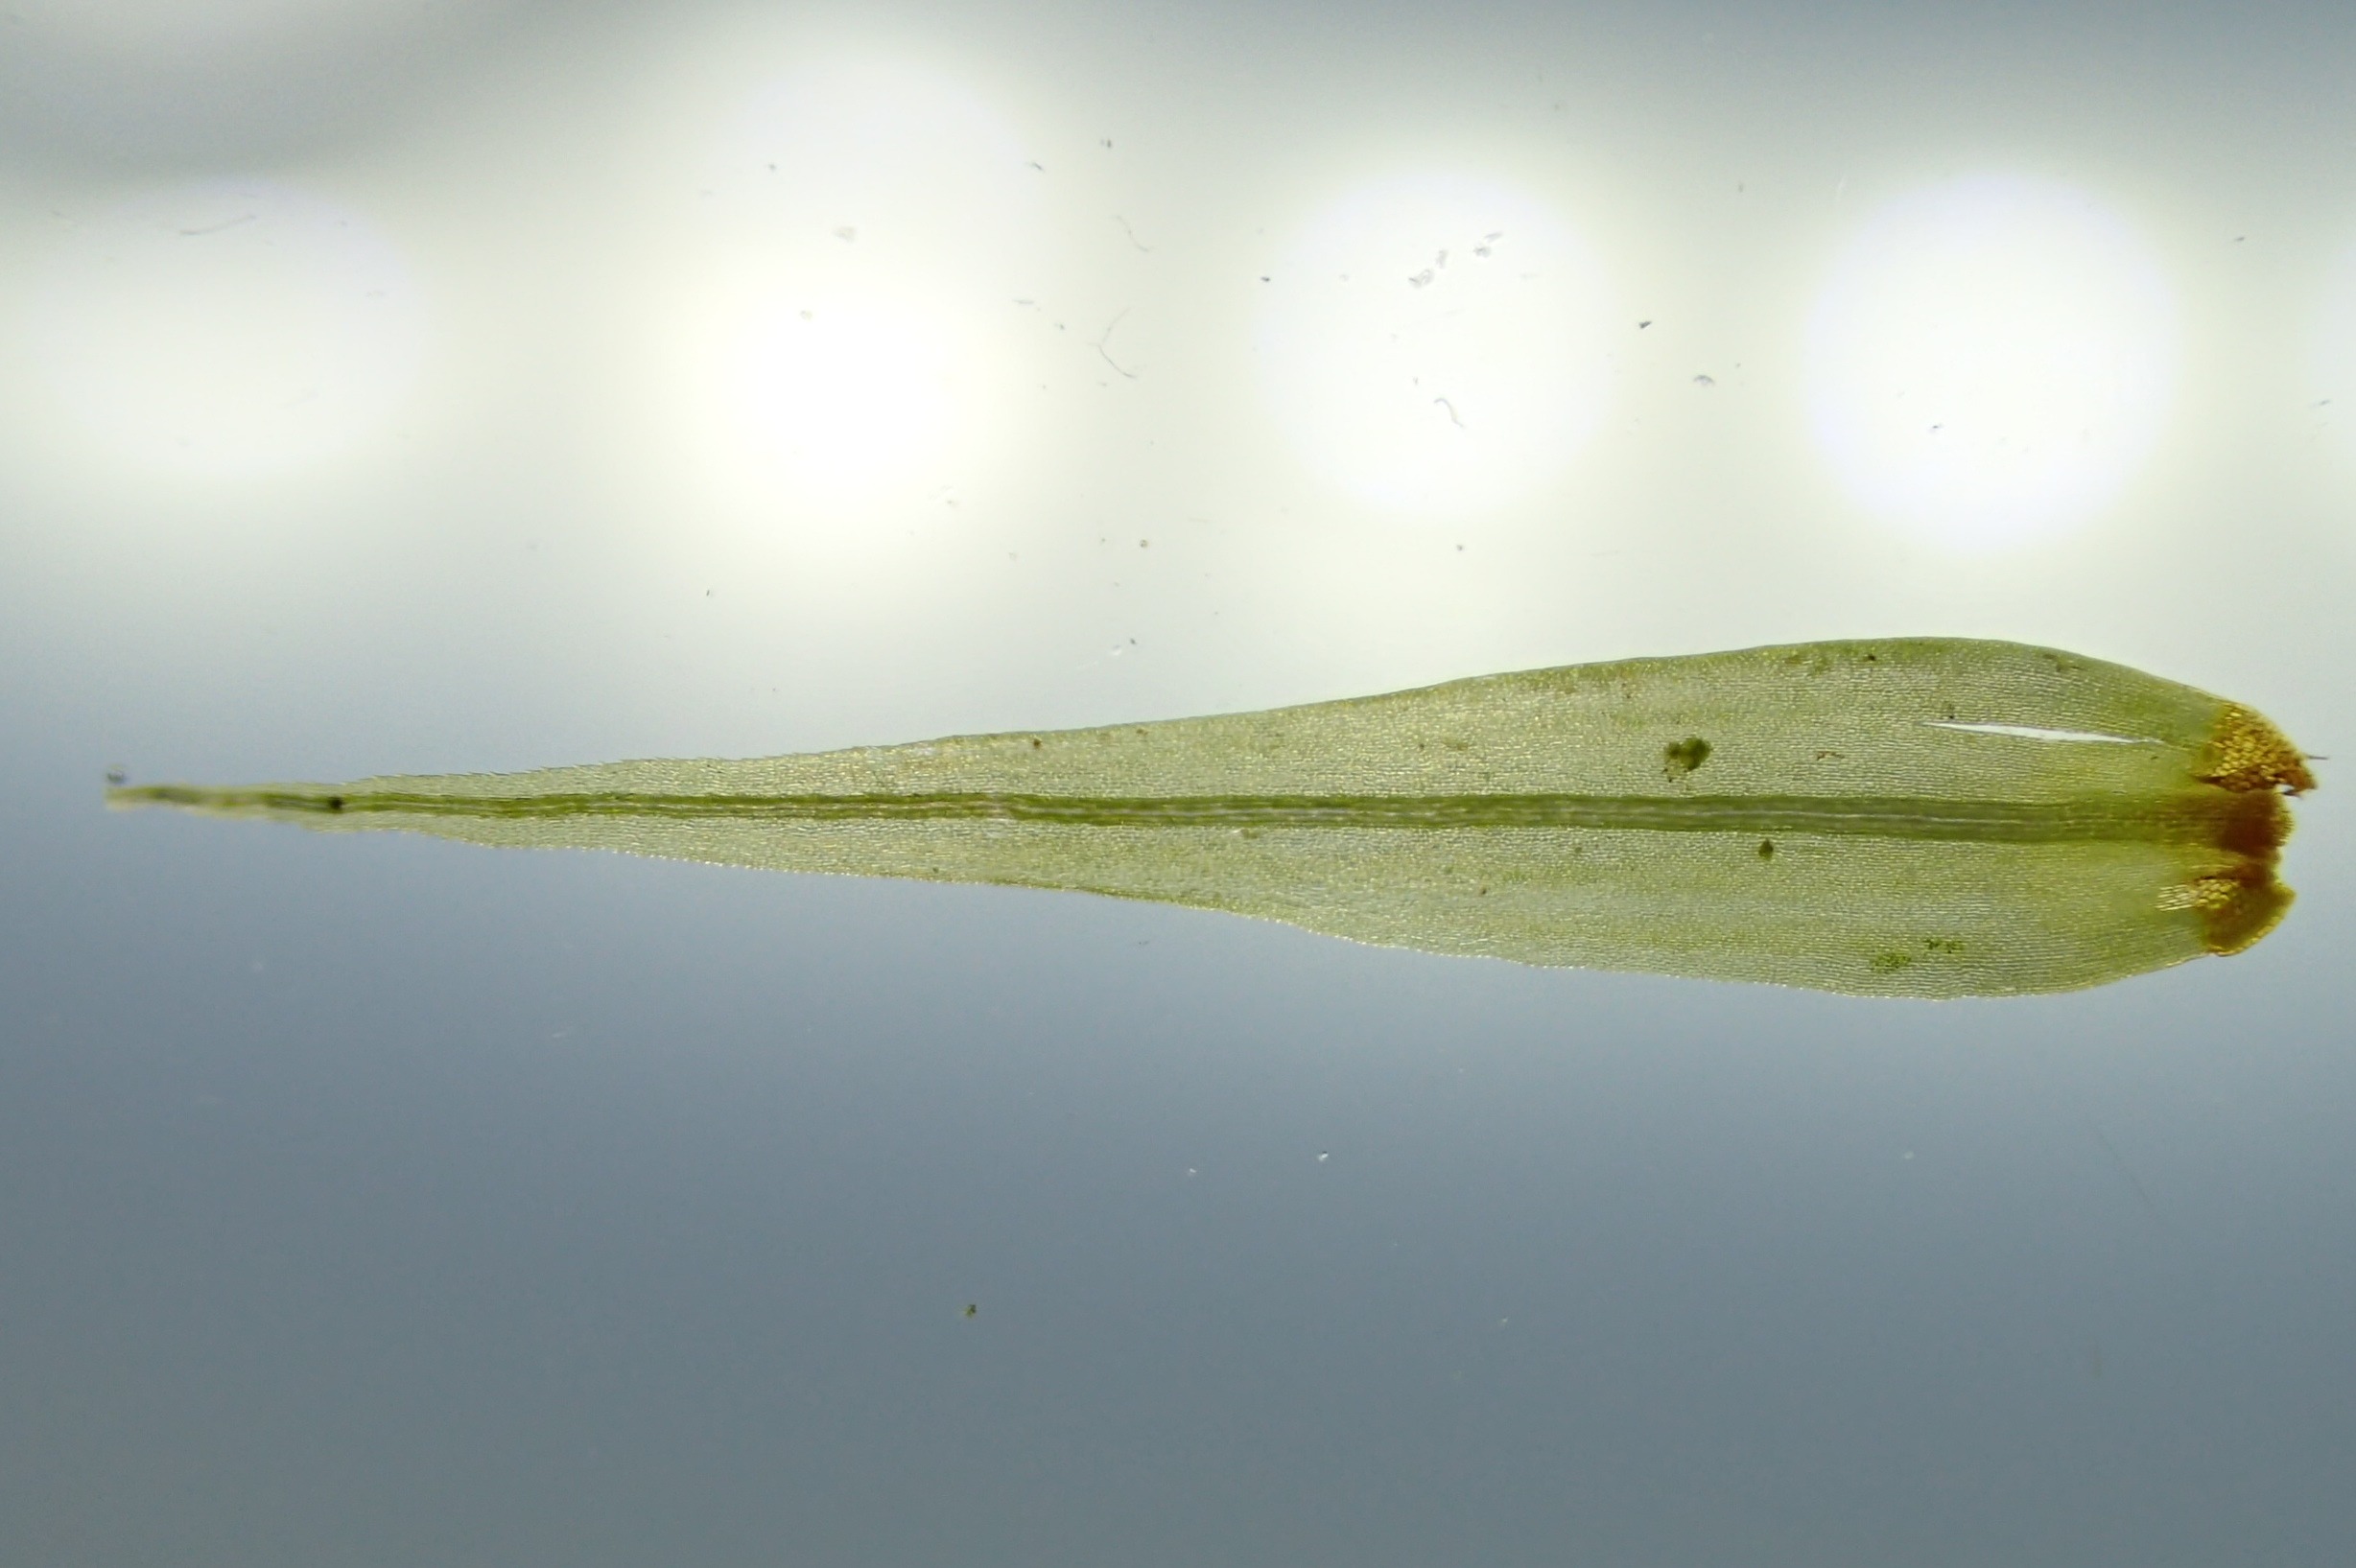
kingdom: Plantae
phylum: Bryophyta
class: Bryopsida
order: Dicranales
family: Dicranaceae
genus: Dicranum
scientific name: Dicranum scoparium
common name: Almindelig kløvtand
